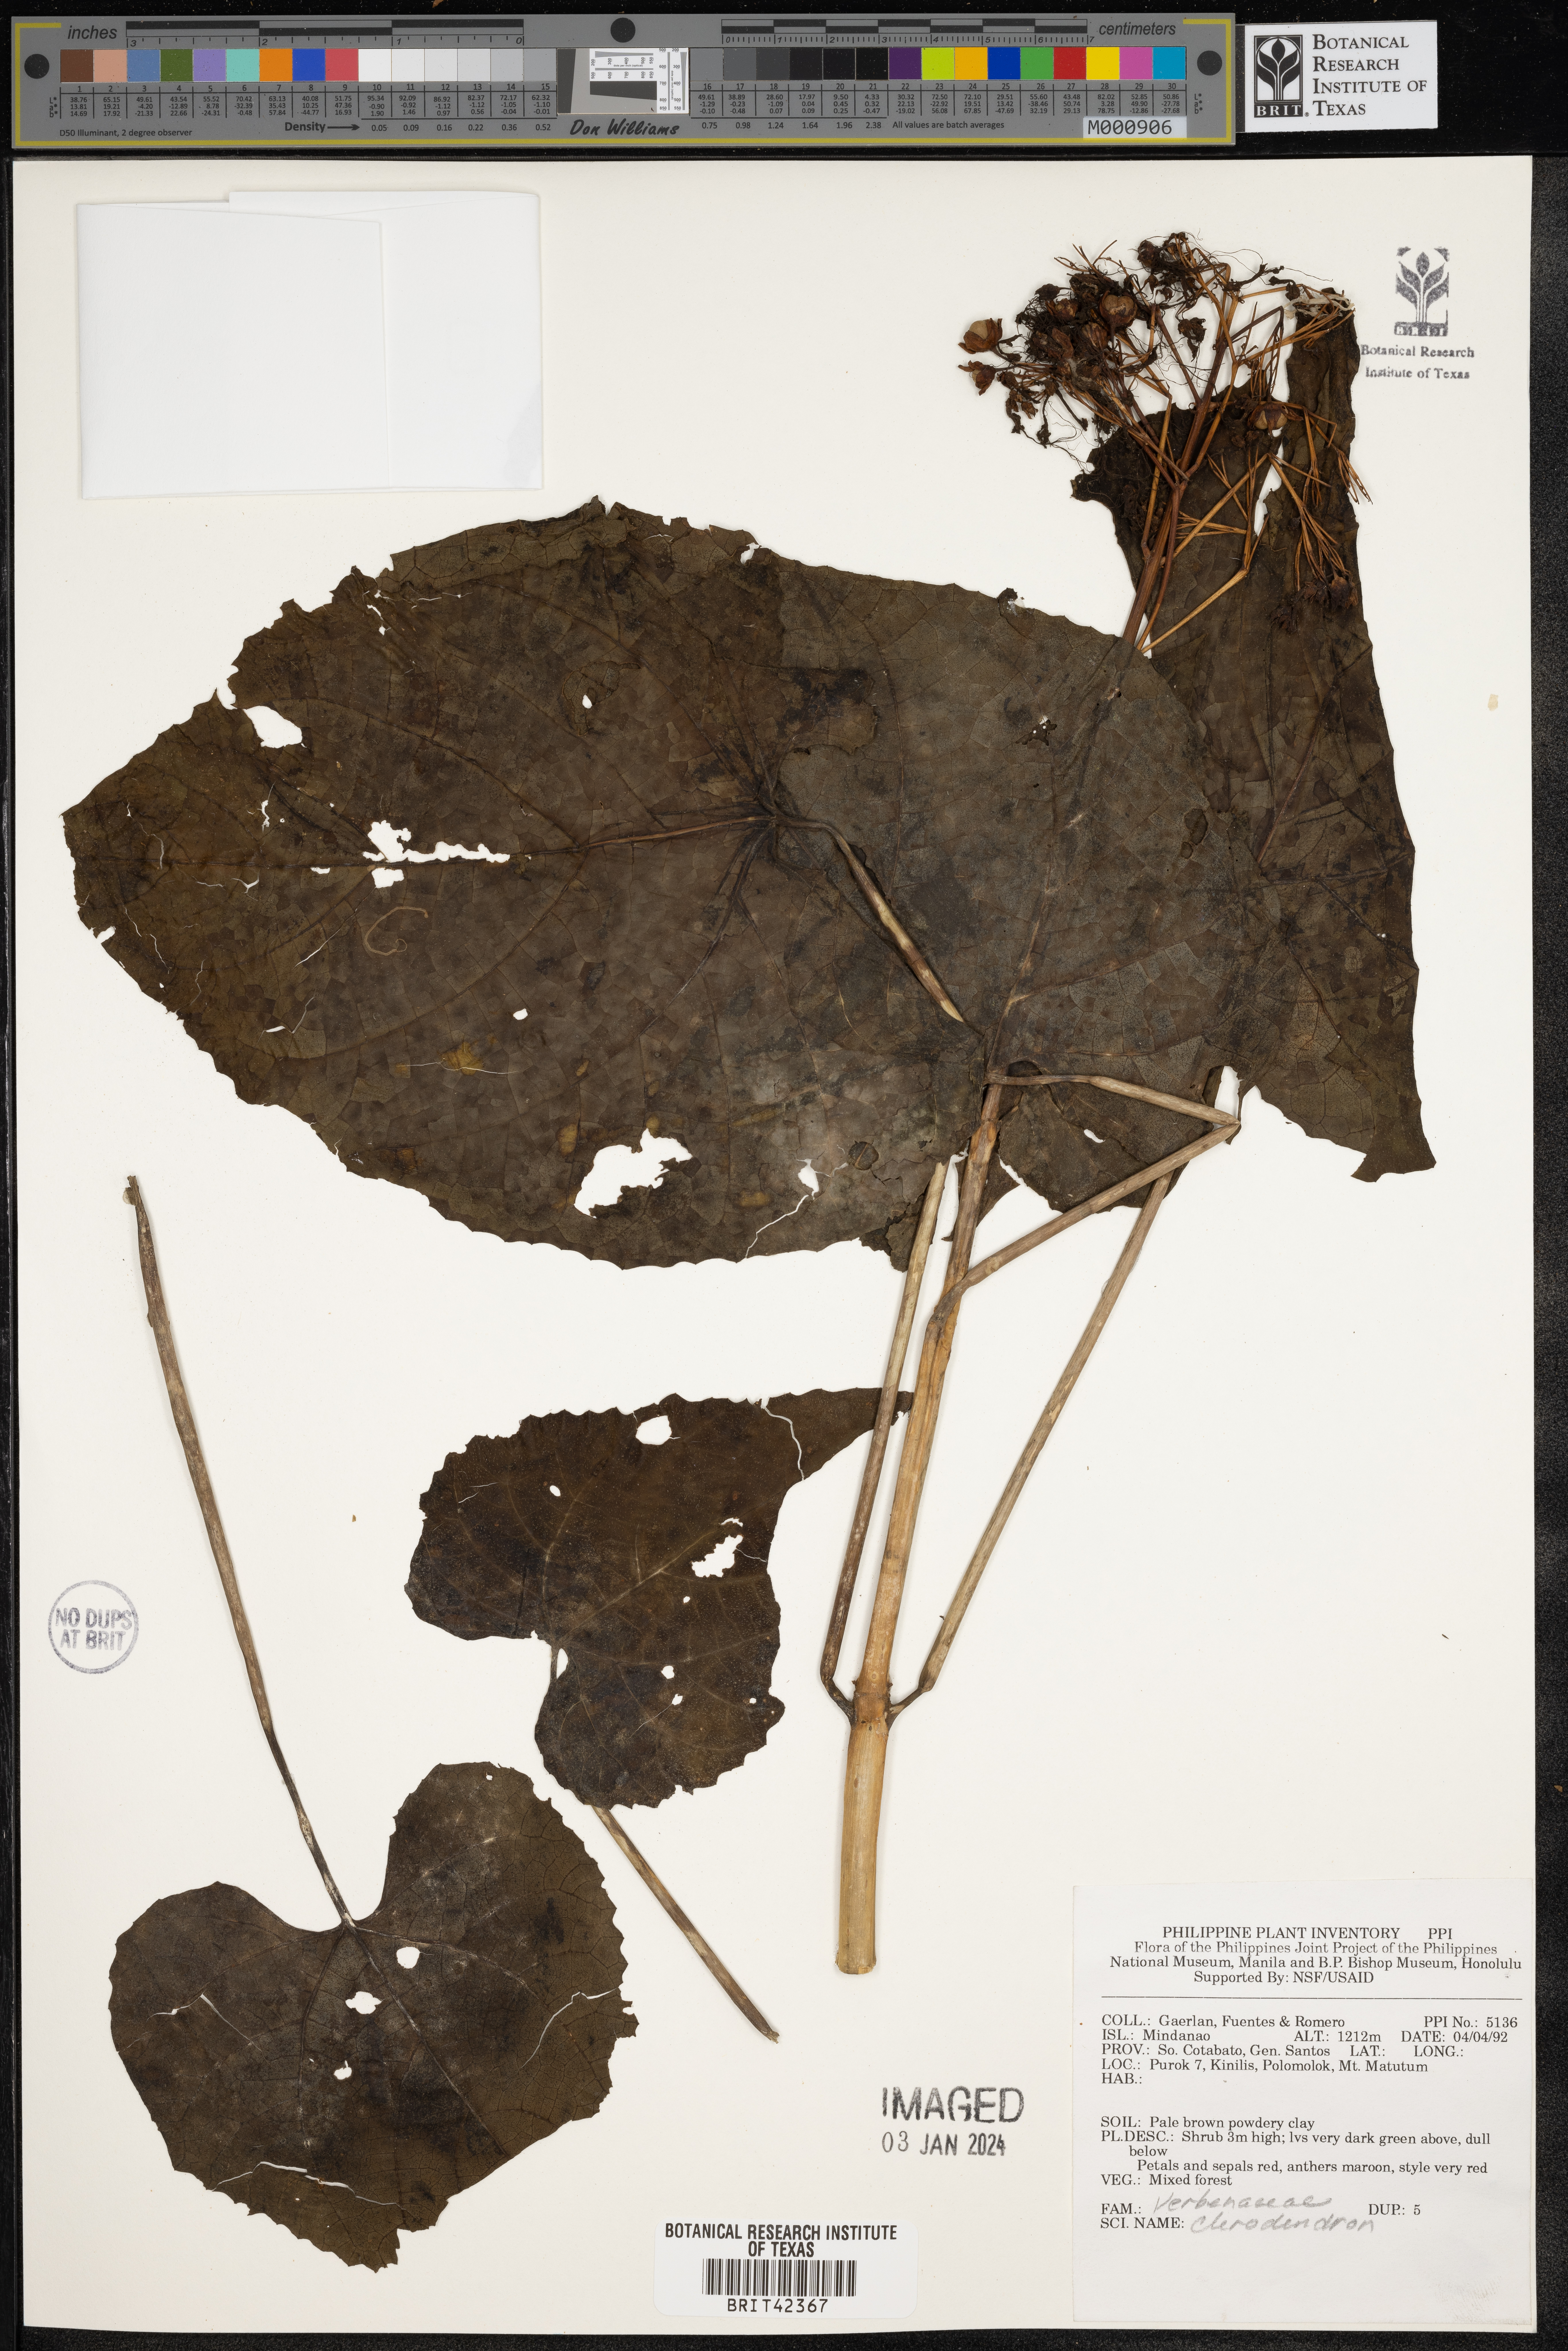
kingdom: Plantae
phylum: Tracheophyta
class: Magnoliopsida
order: Lamiales
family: Lamiaceae
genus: Clerodendrum
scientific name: Clerodendrum
